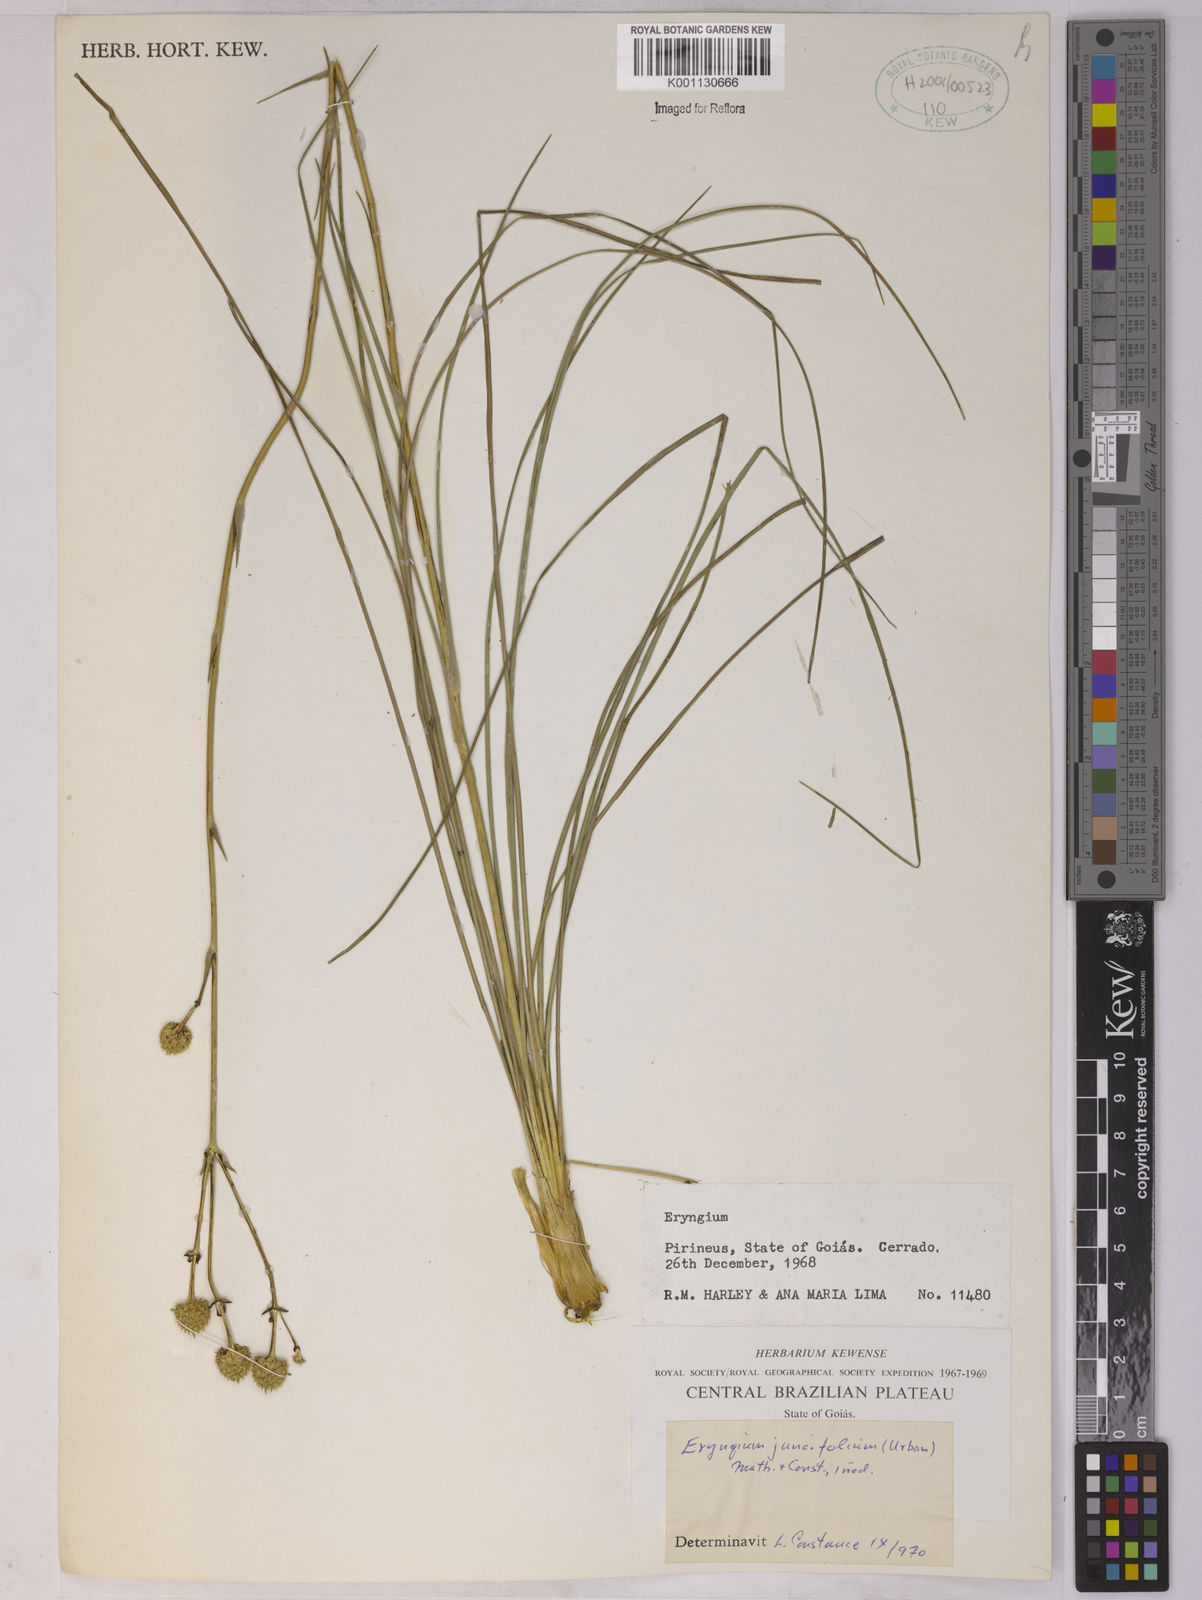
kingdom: Plantae
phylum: Tracheophyta
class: Magnoliopsida
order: Apiales
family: Apiaceae
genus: Eryngium
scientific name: Eryngium juncifolium
